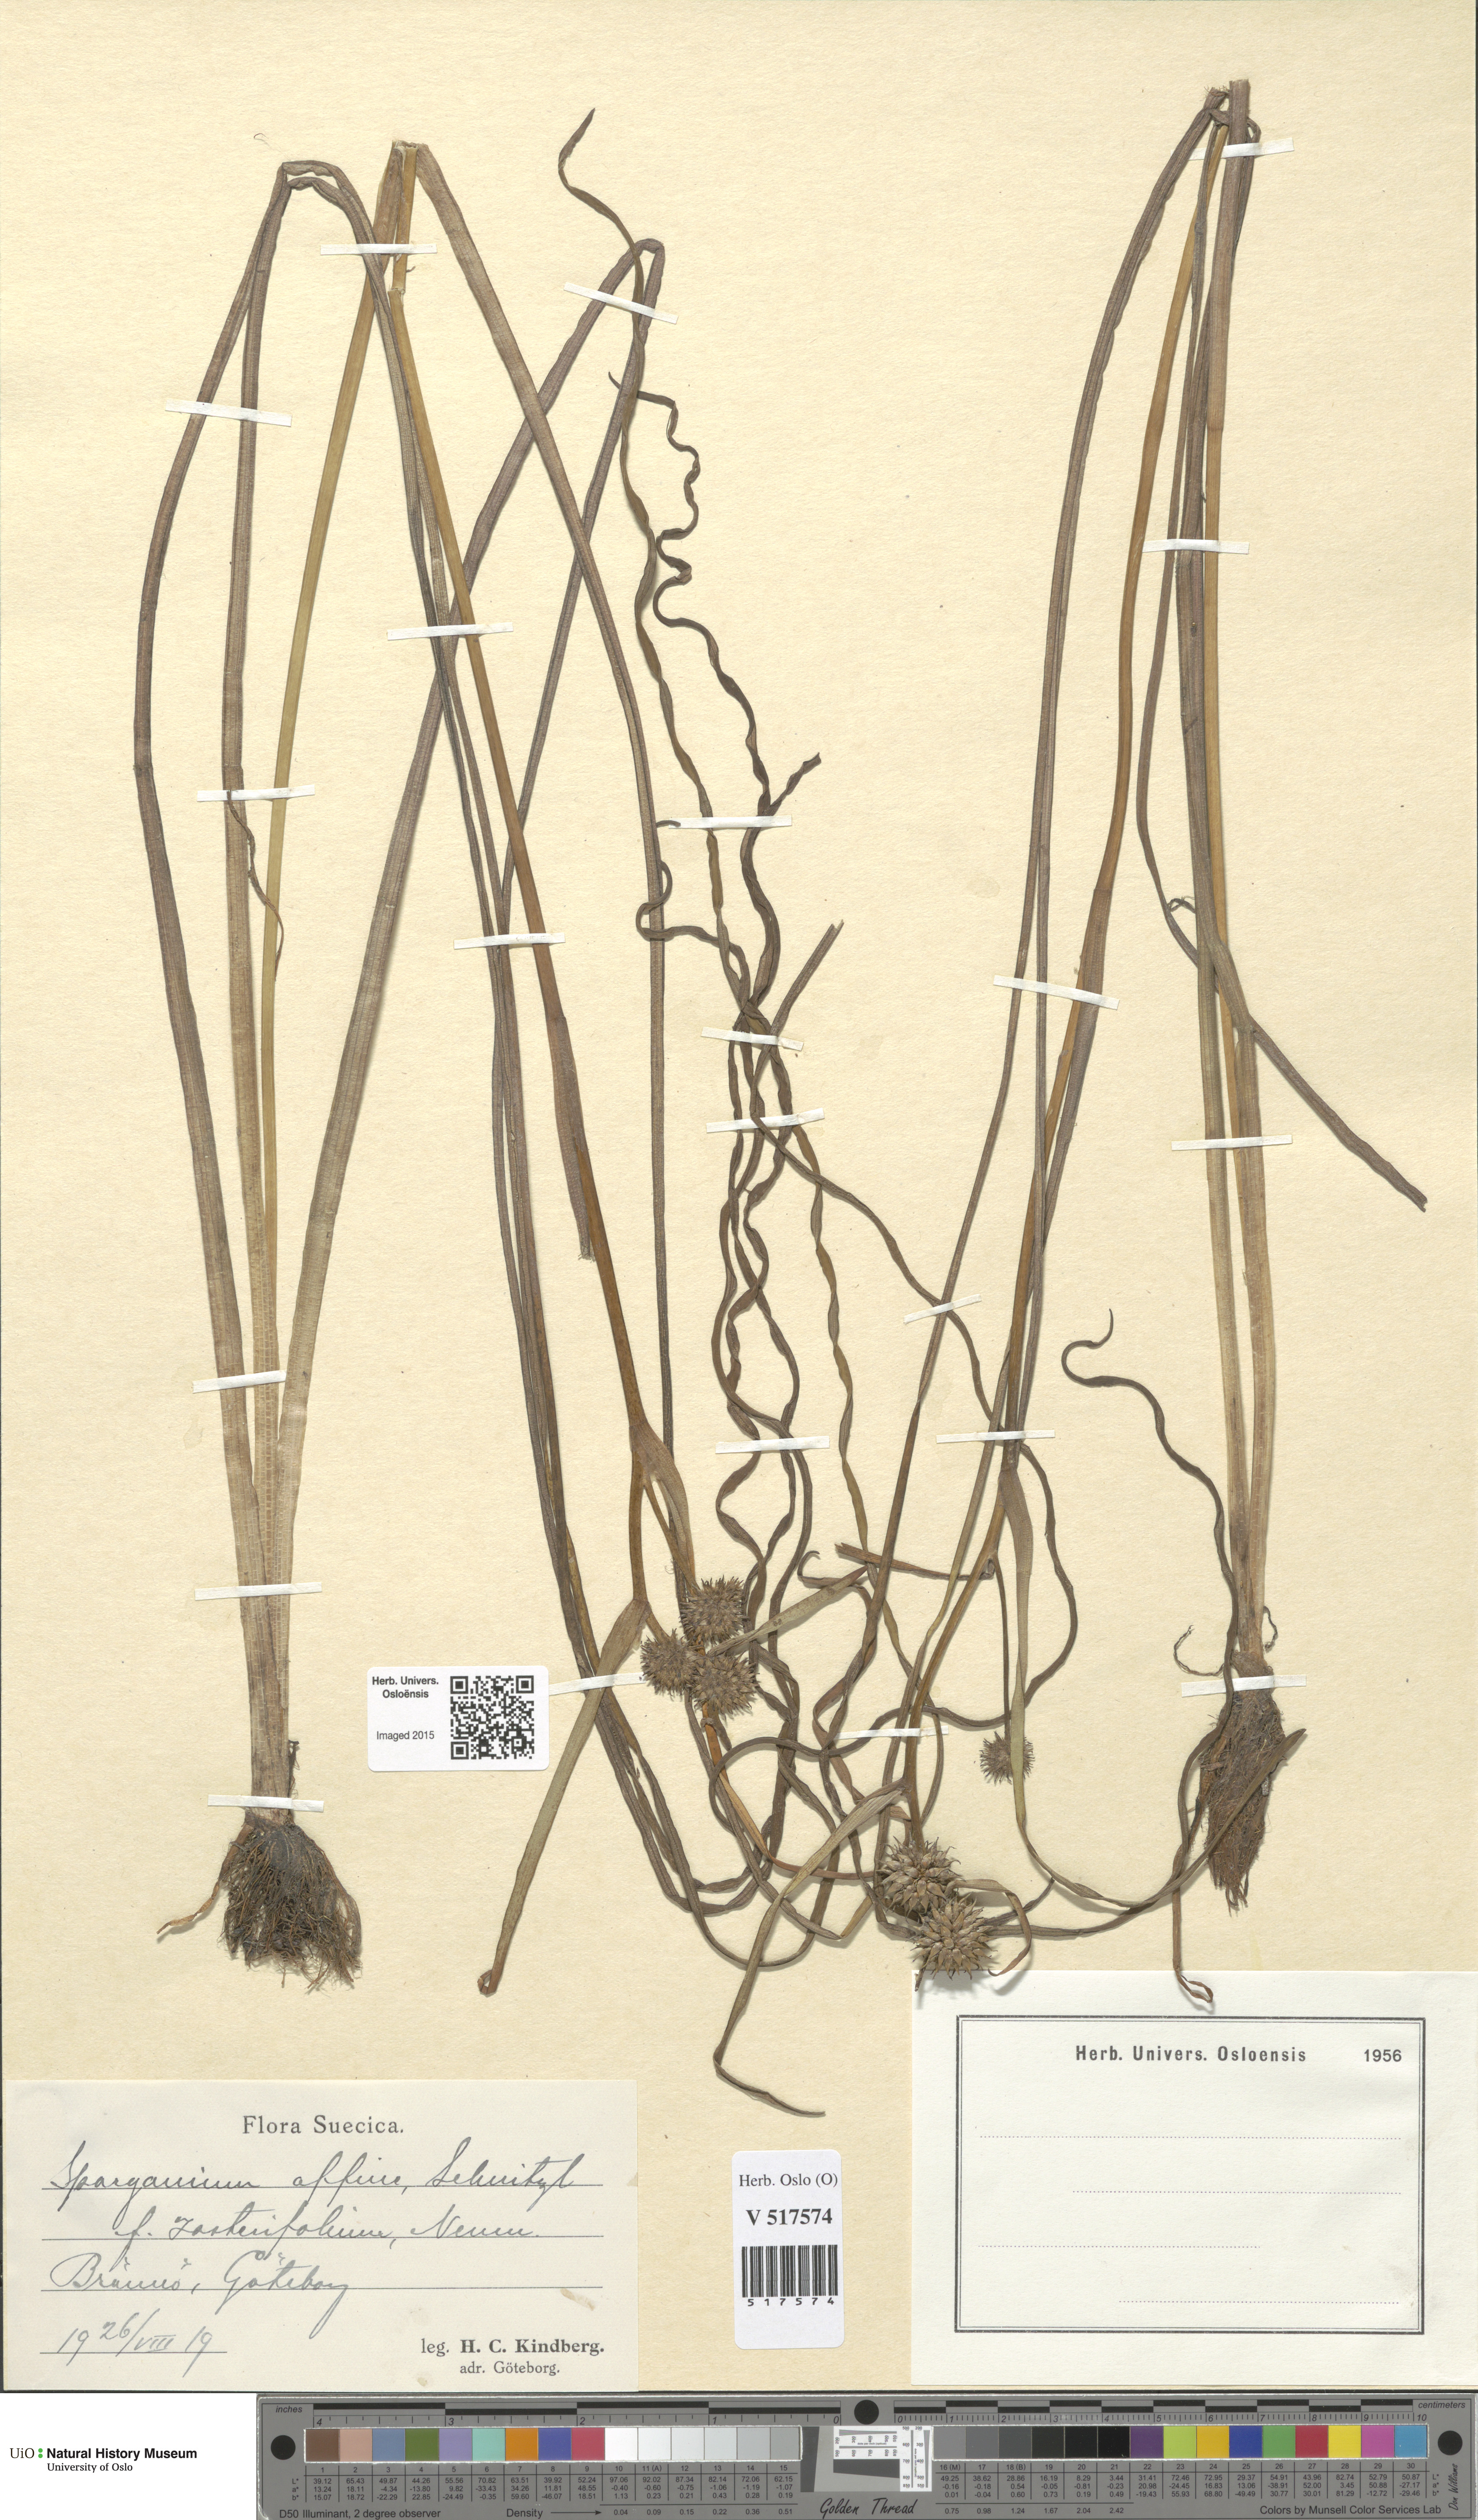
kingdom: Plantae
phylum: Tracheophyta
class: Liliopsida
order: Poales
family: Typhaceae
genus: Sparganium
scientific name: Sparganium angustifolium
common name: Floating bur-reed
